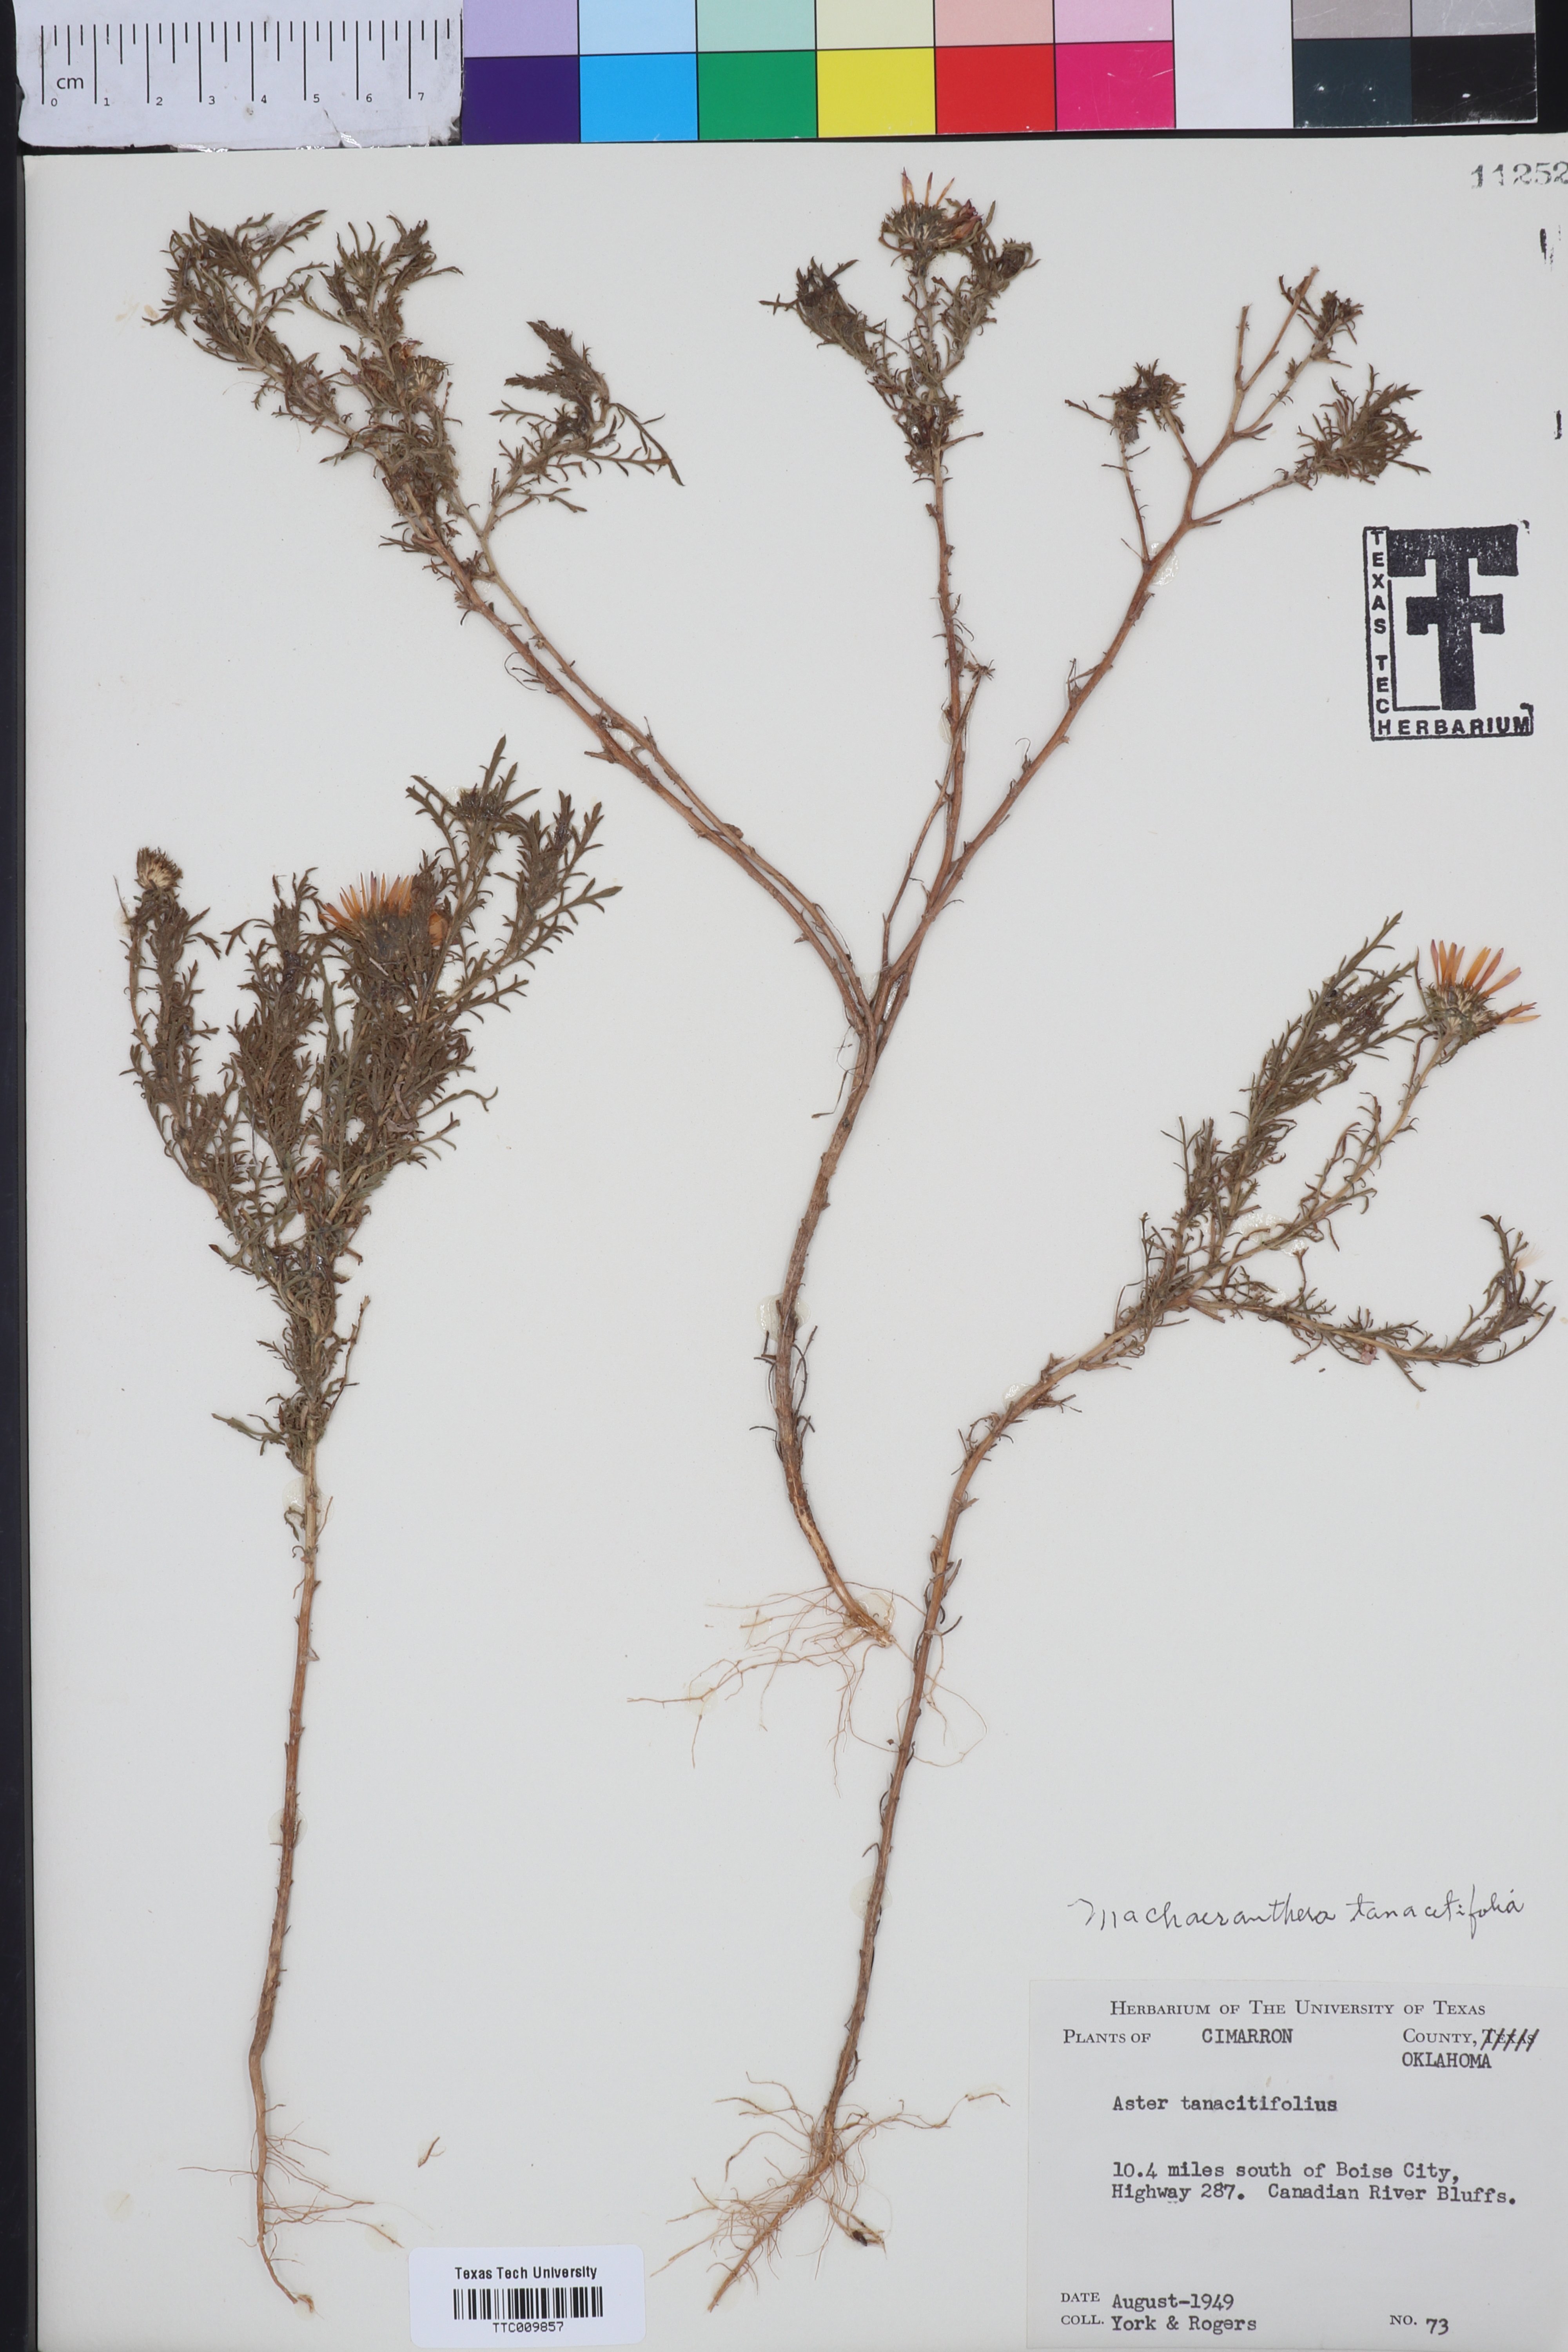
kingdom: Plantae
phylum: Tracheophyta
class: Magnoliopsida
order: Asterales
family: Asteraceae
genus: Machaeranthera
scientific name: Machaeranthera tanacetifolia
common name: Tansy-aster
